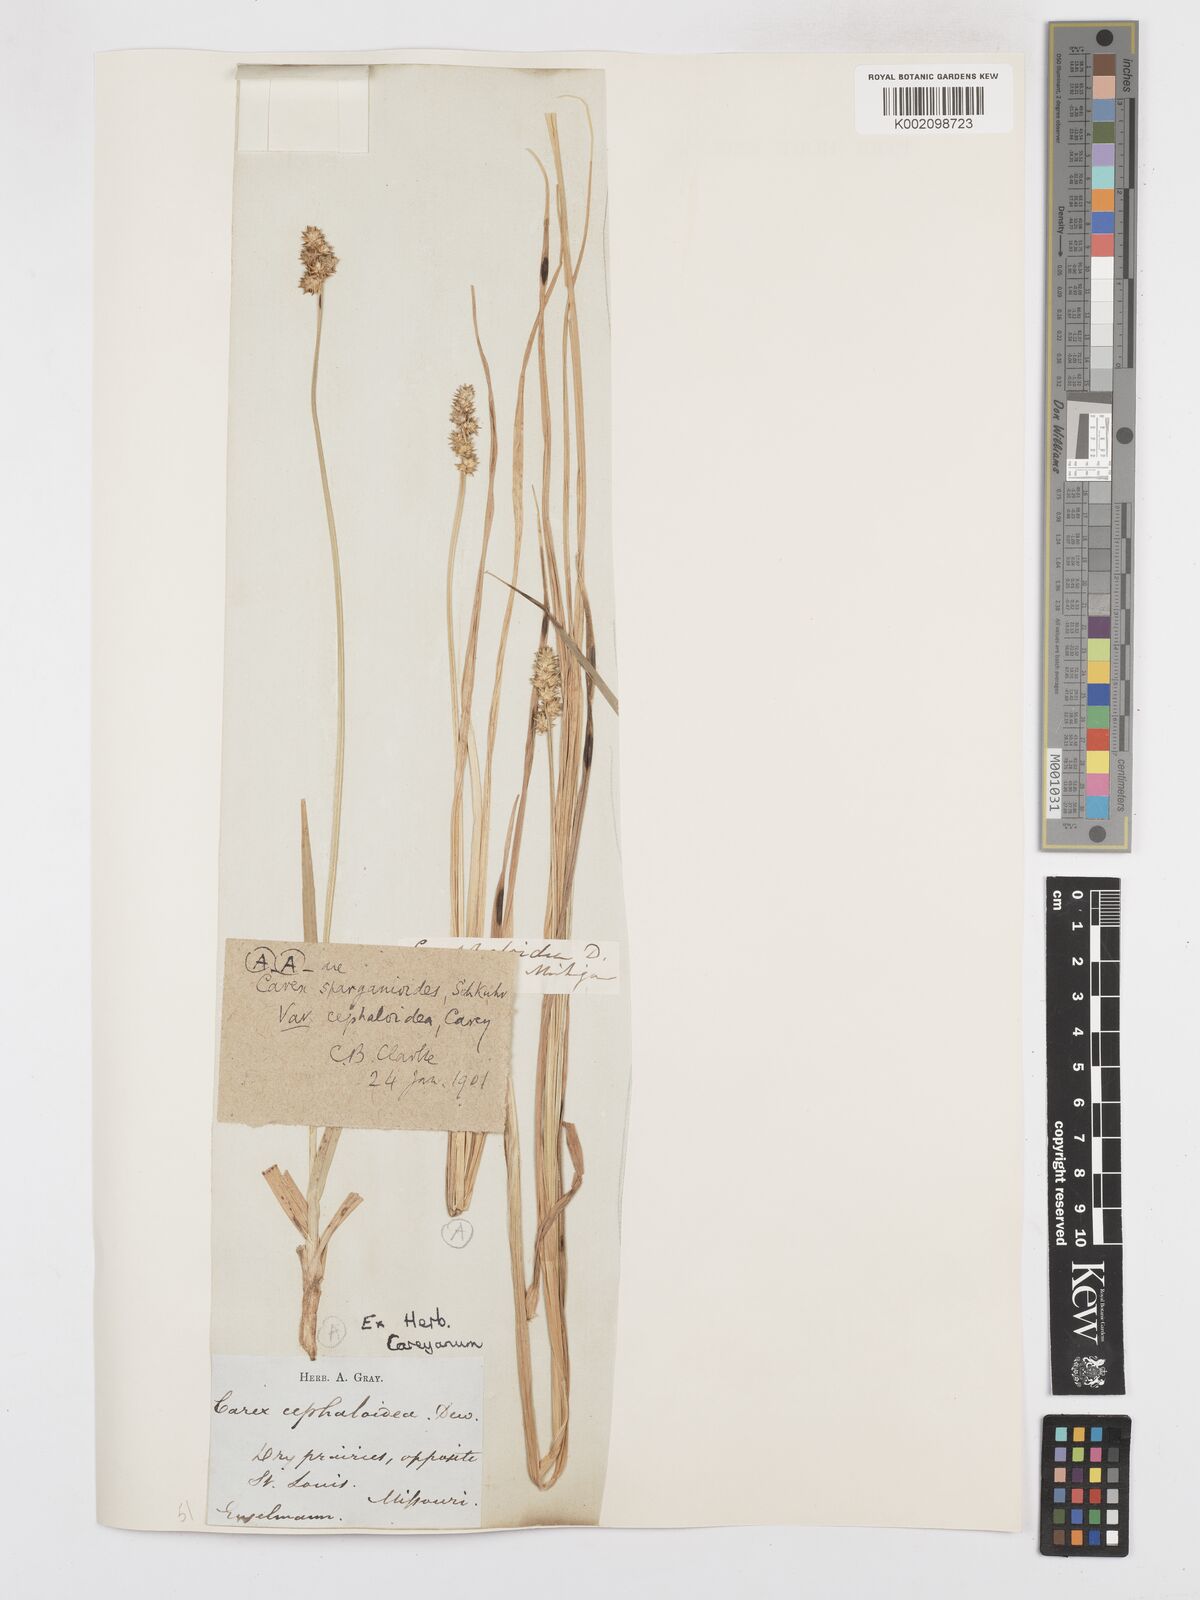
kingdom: Plantae
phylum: Tracheophyta
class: Liliopsida
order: Poales
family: Cyperaceae
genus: Carex
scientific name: Carex cephaloidea
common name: Thin-leaved sedge
